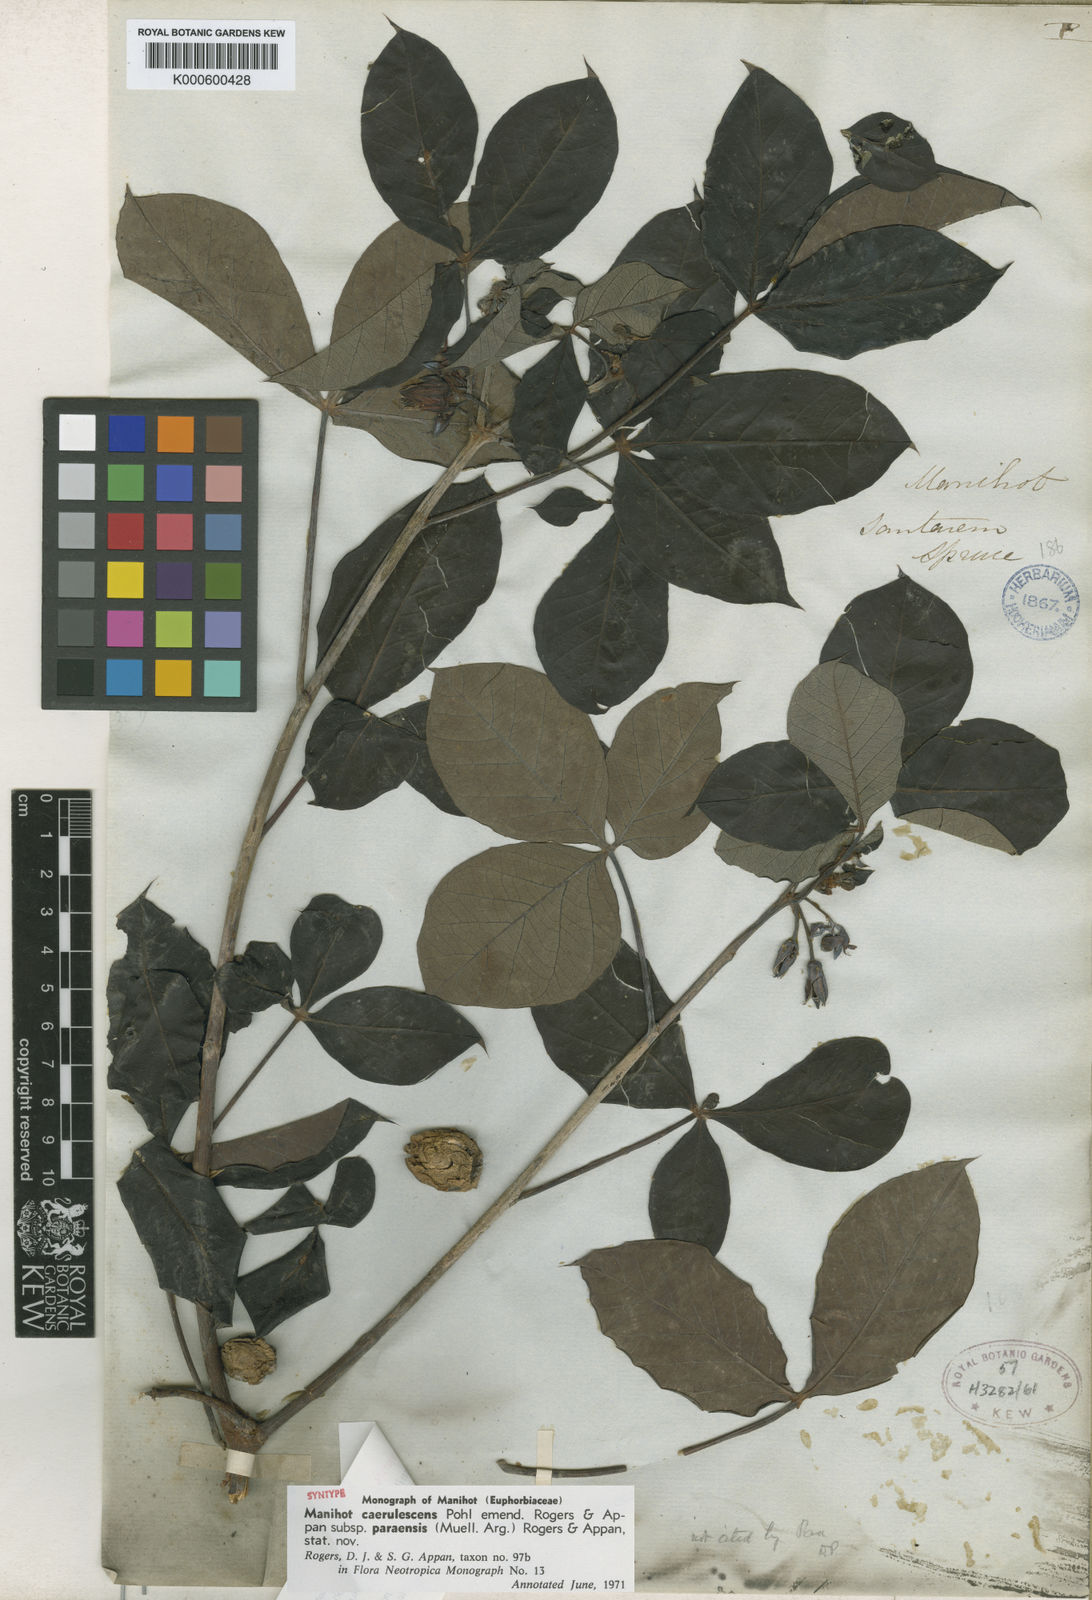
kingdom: Plantae
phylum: Tracheophyta
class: Magnoliopsida
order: Malpighiales
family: Euphorbiaceae
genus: Manihot
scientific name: Manihot caerulescens
